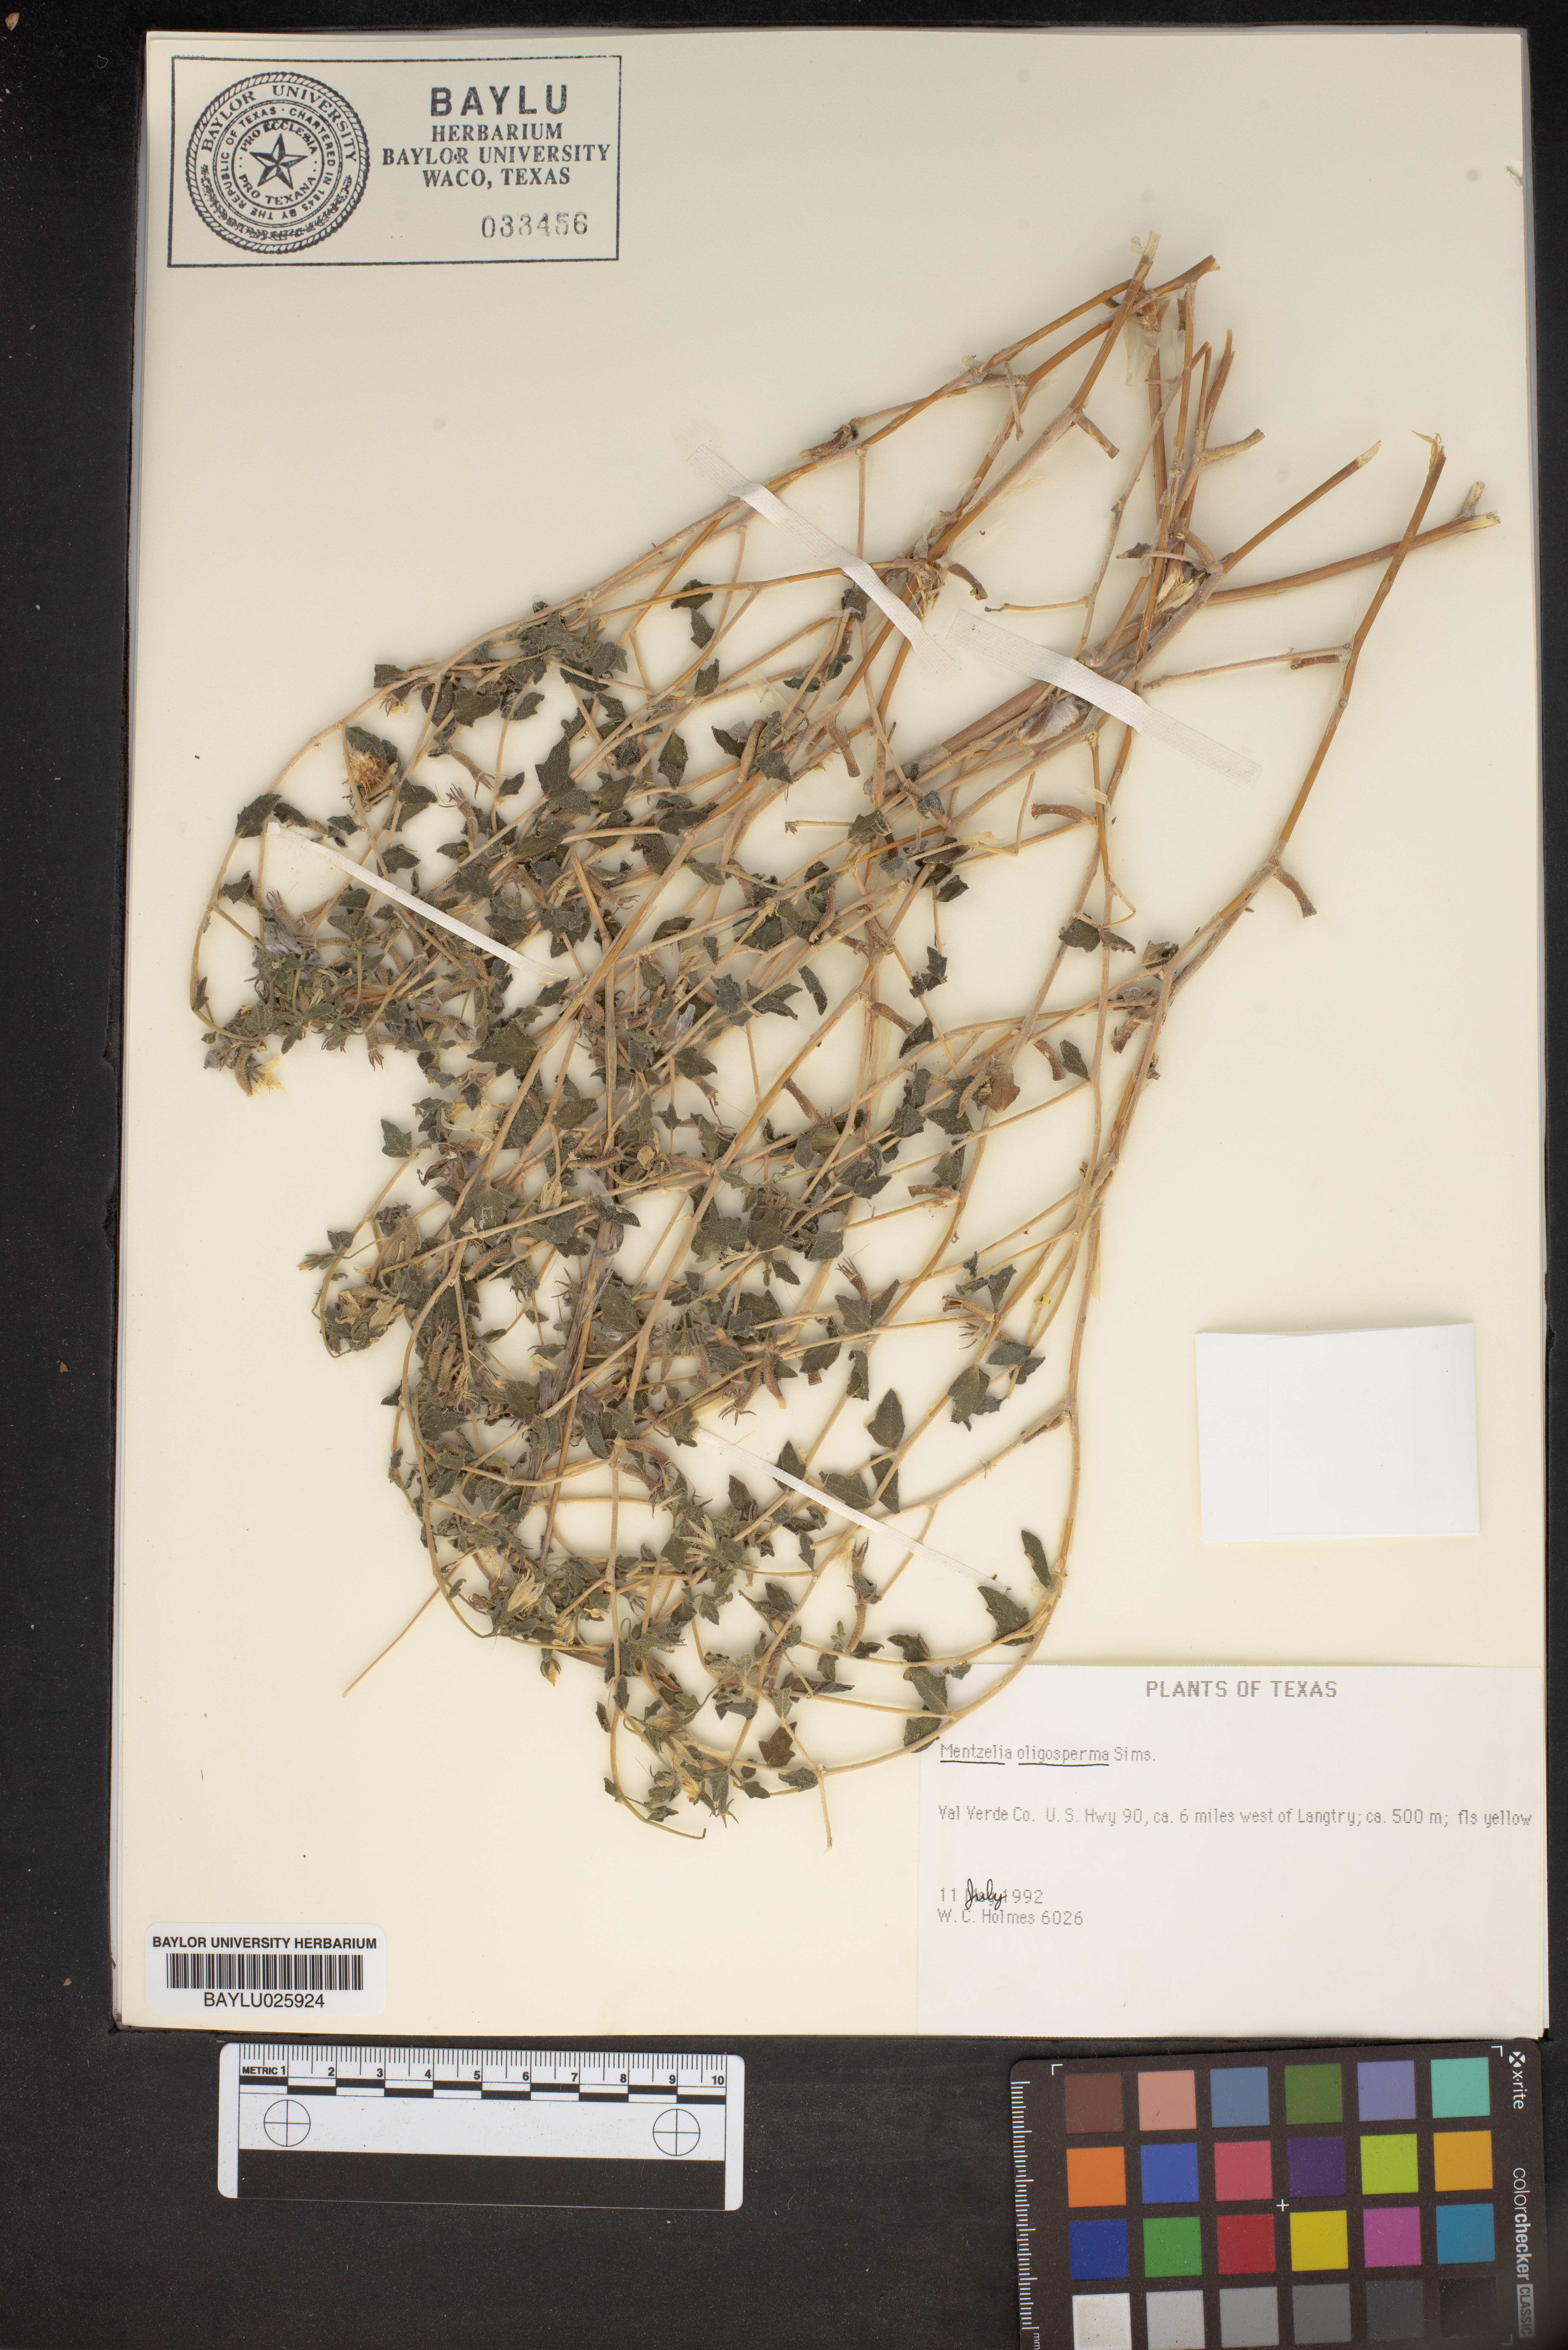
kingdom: Plantae
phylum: Tracheophyta
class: Magnoliopsida
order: Cornales
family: Loasaceae
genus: Mentzelia
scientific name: Mentzelia oligosperma
